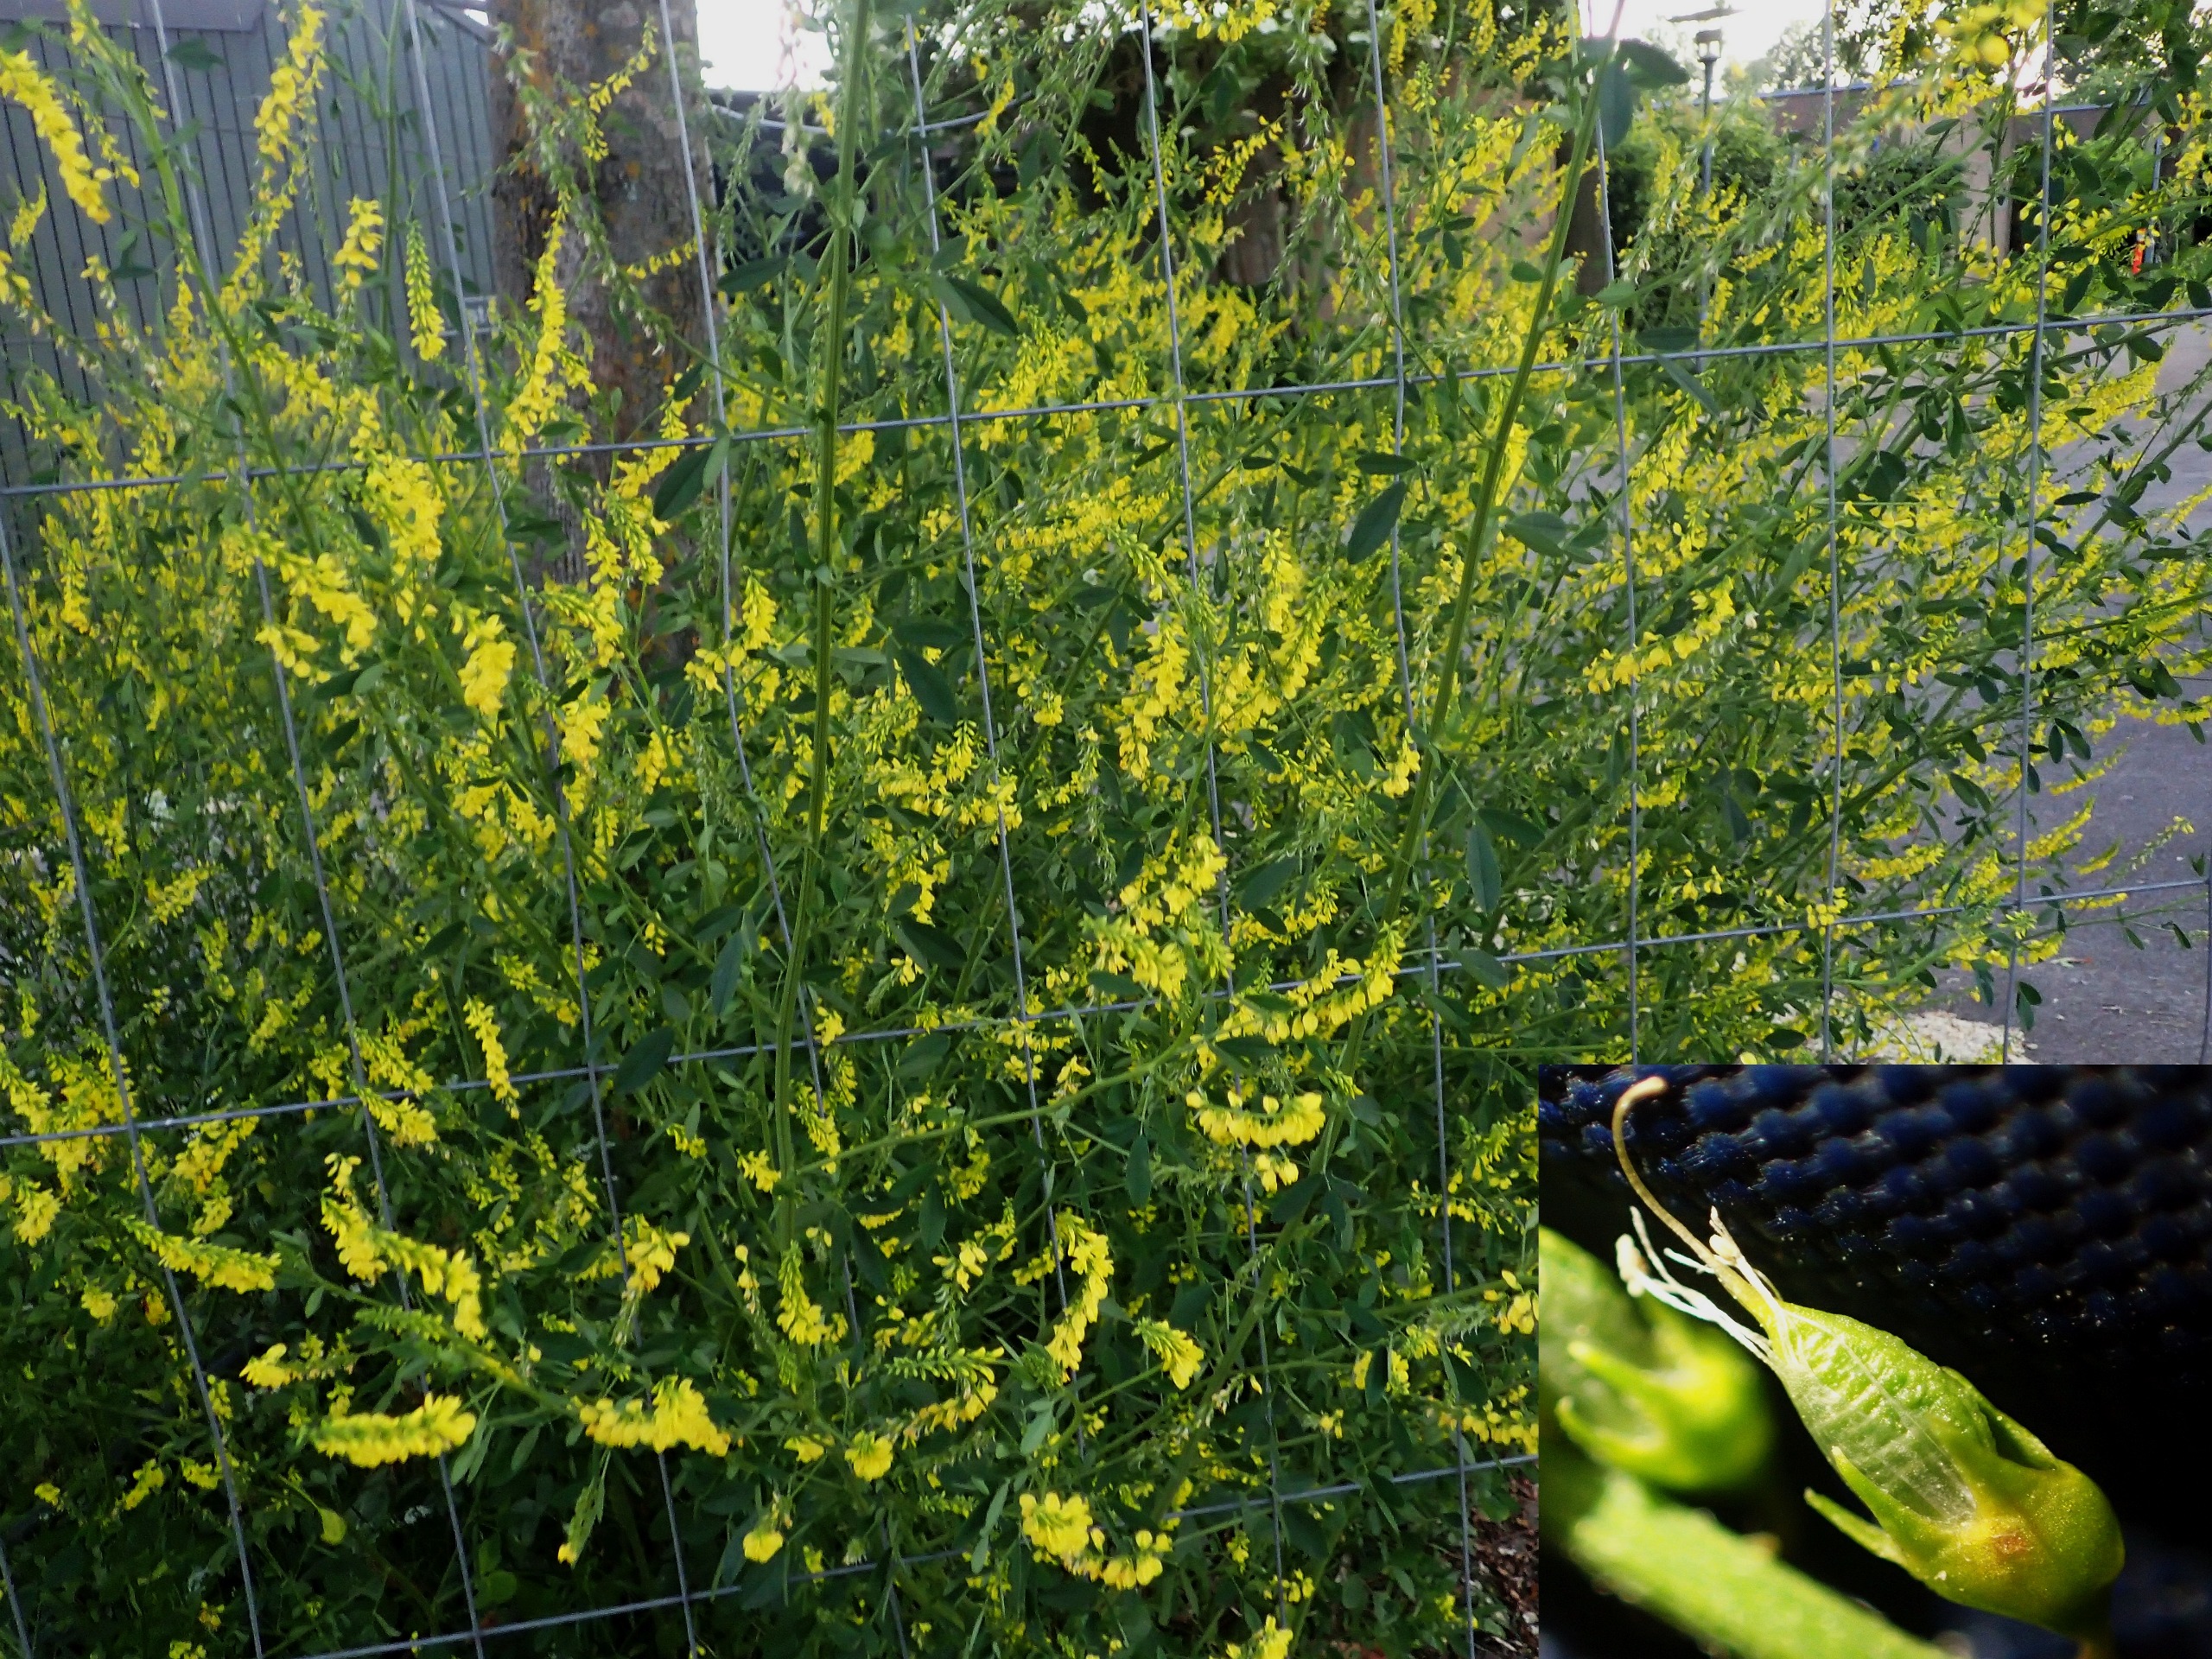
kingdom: Plantae
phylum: Tracheophyta
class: Magnoliopsida
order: Fabales
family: Fabaceae
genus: Melilotus
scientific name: Melilotus officinalis
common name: Mark-stenkløver
